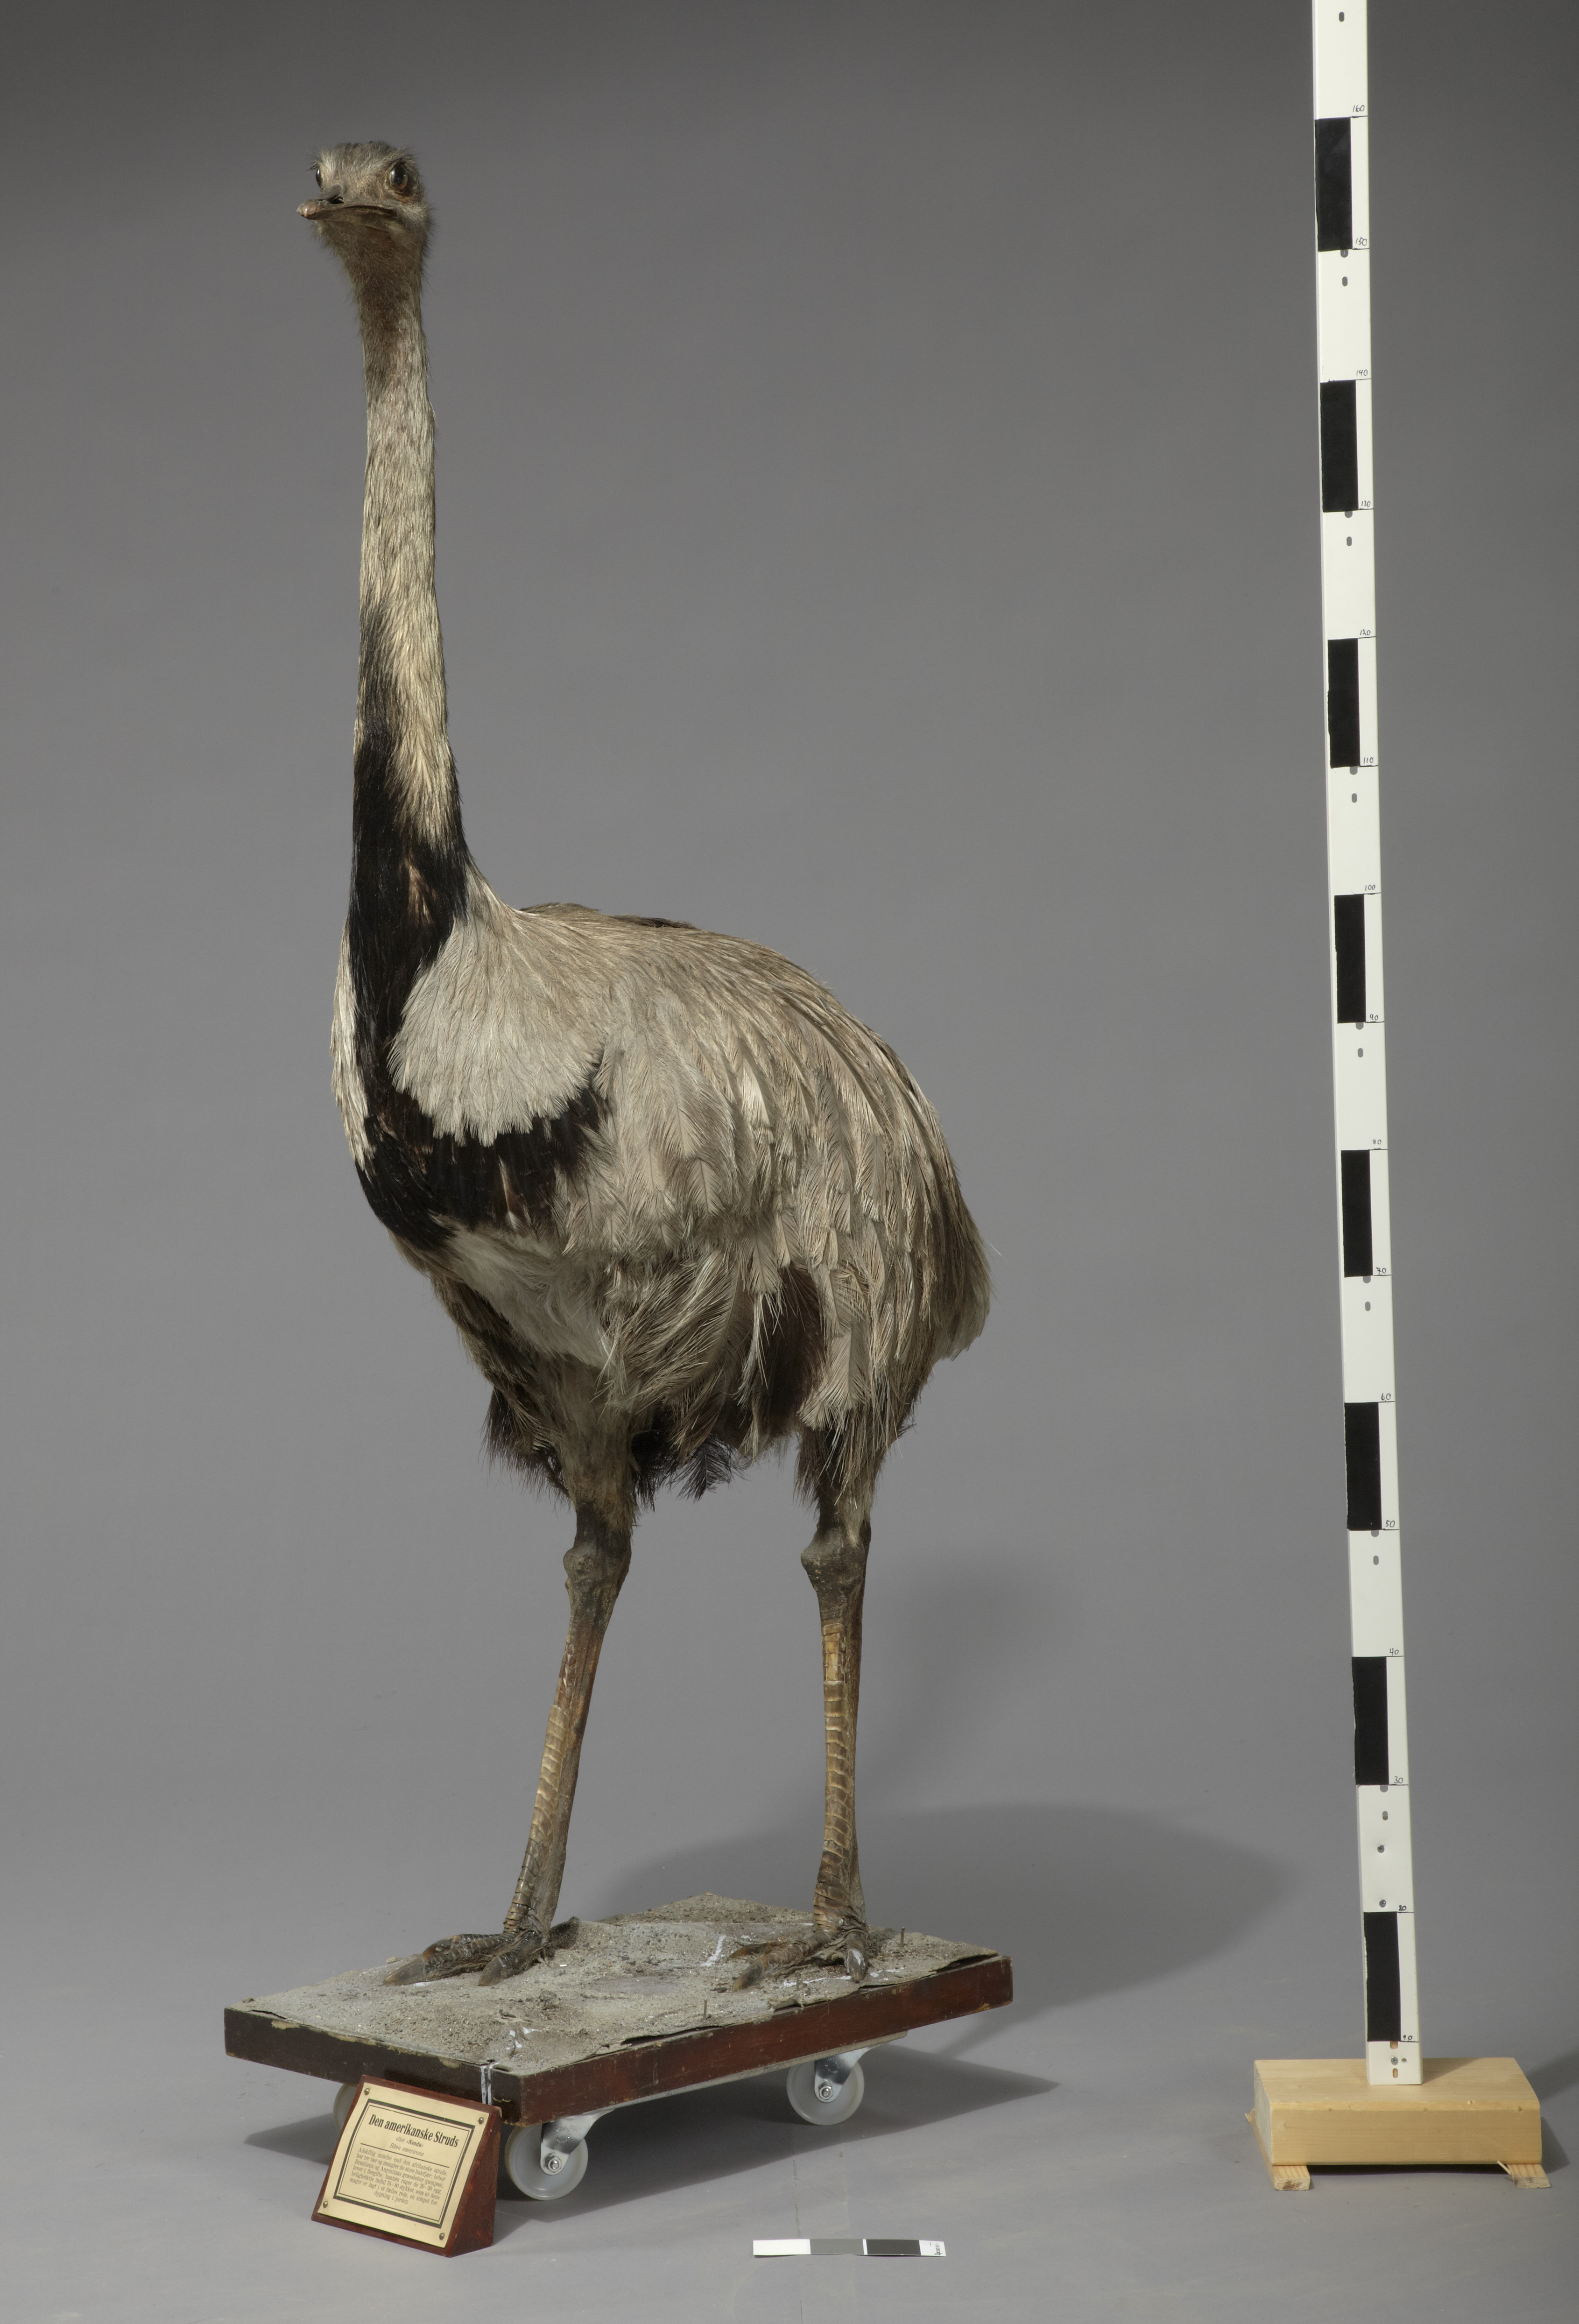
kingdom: Animalia
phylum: Chordata
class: Aves
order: Rheiformes
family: Rheidae
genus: Rhea
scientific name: Rhea americana
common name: Greater rhea
